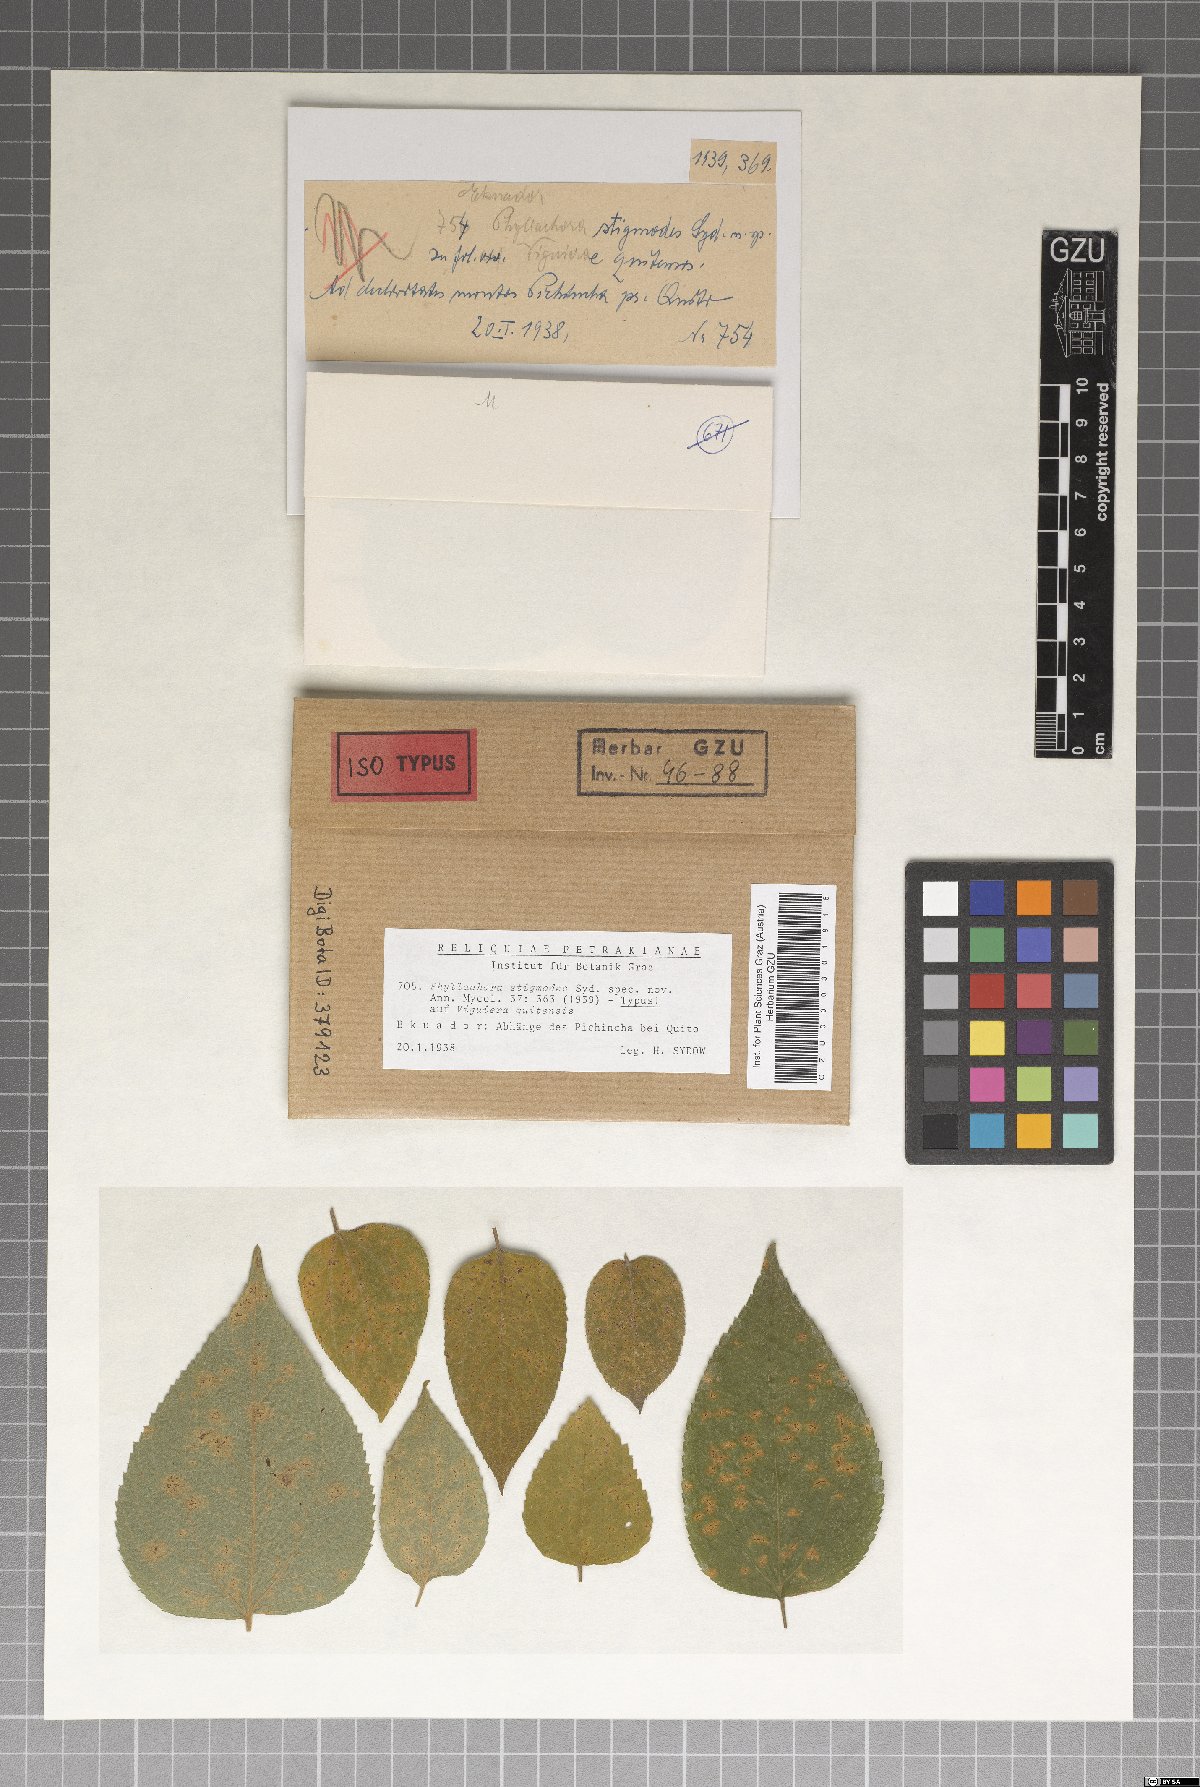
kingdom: Fungi
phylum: Ascomycota
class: Sordariomycetes
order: Phyllachorales
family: Phyllachoraceae
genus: Phyllachora
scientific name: Phyllachora stigmodes
